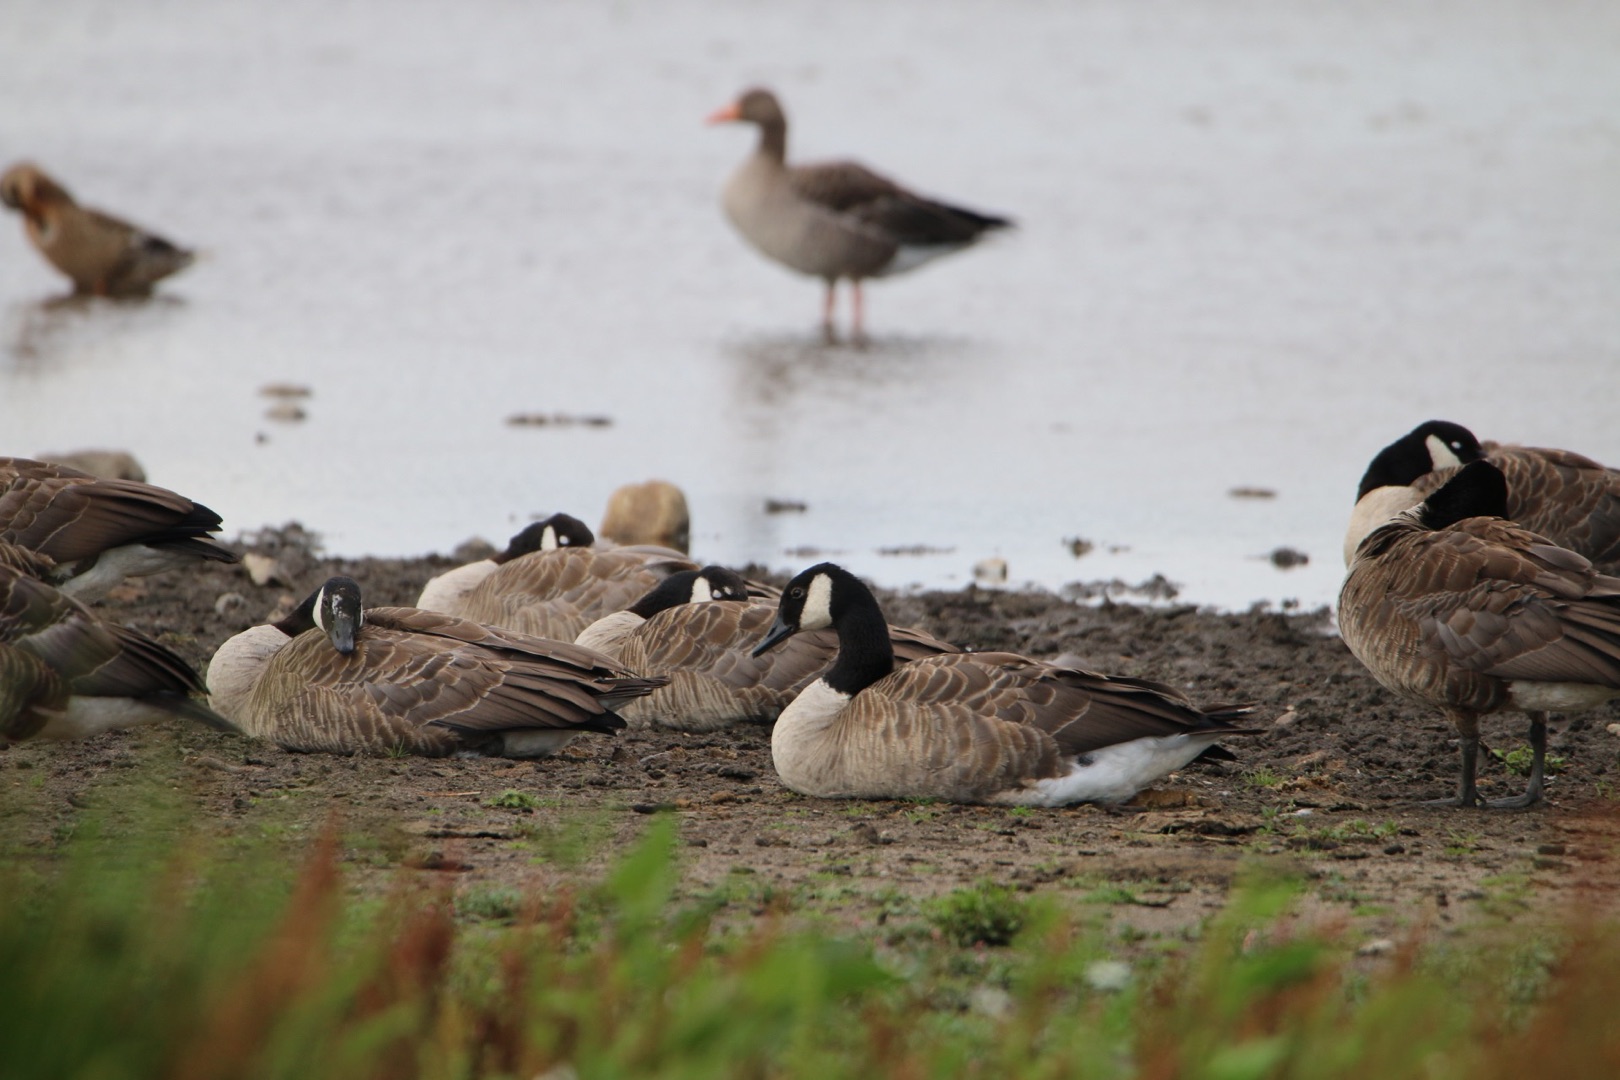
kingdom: Animalia
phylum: Chordata
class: Aves
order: Anseriformes
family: Anatidae
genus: Branta
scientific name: Branta canadensis
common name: Canadagås
